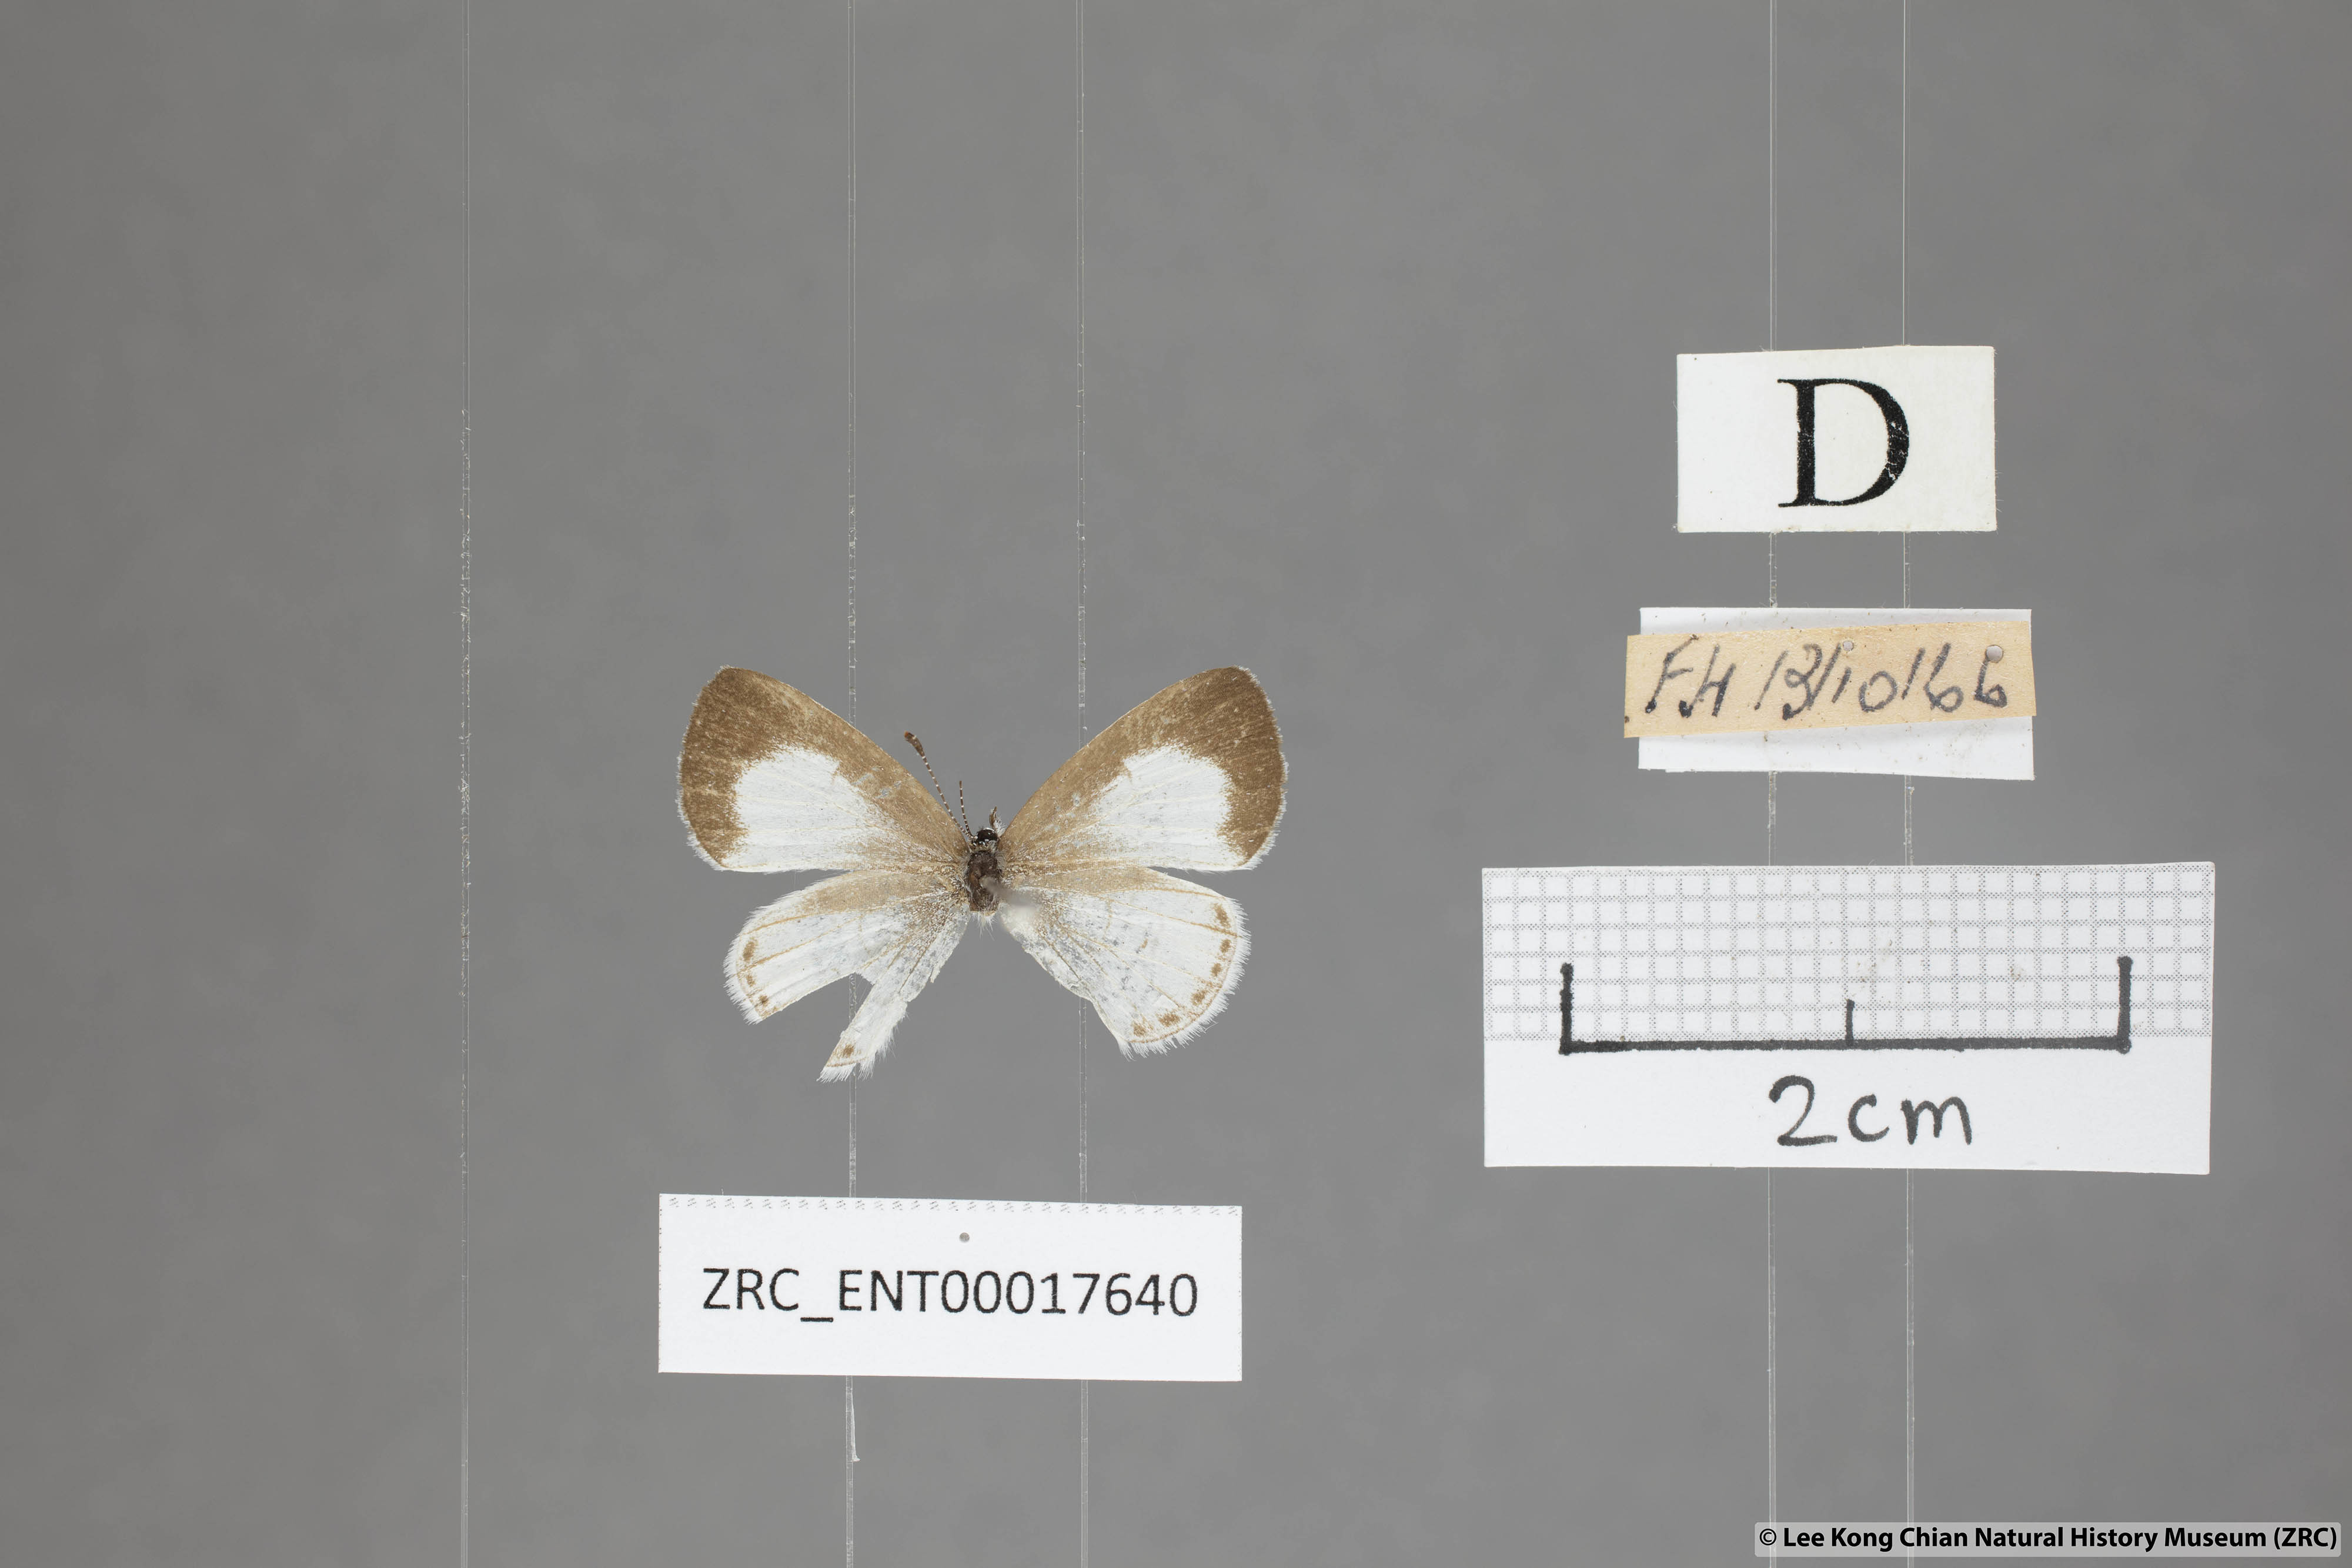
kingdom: Animalia
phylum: Arthropoda
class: Insecta
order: Lepidoptera
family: Lycaenidae
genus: Udara
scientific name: Udara akasa
